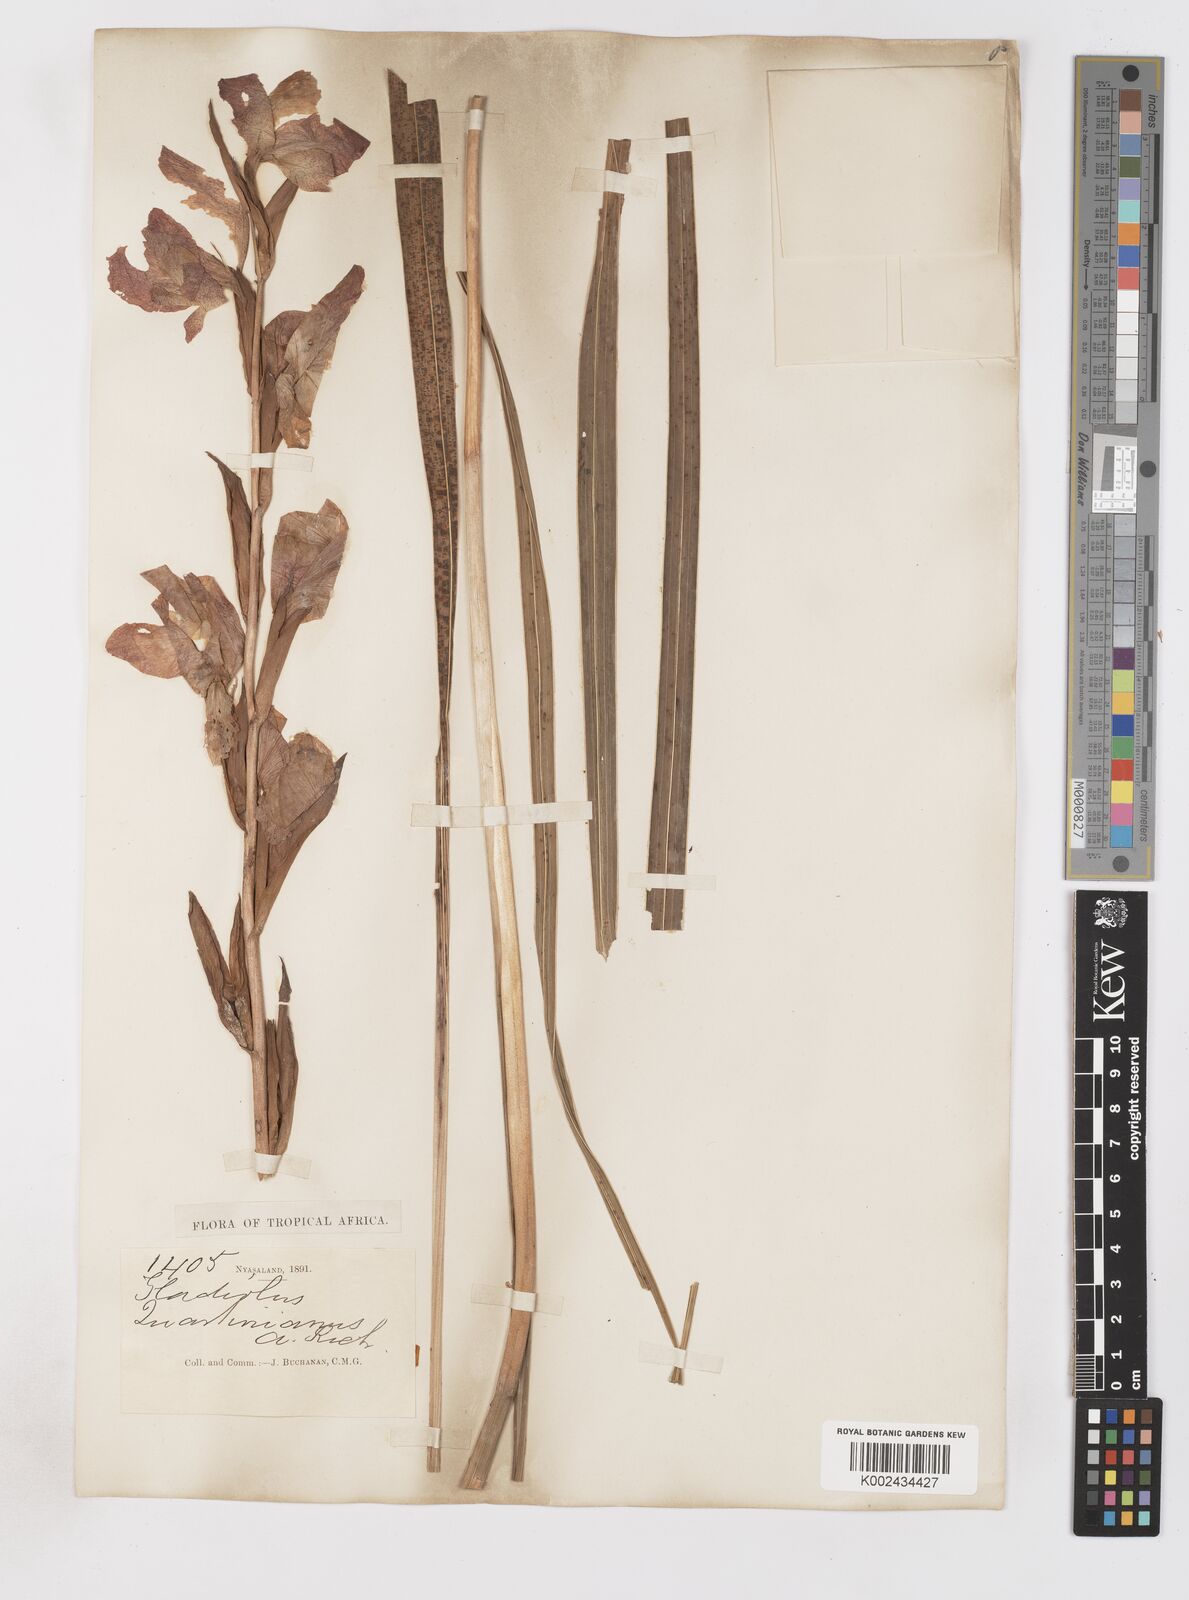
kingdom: Plantae
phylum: Tracheophyta
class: Liliopsida
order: Asparagales
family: Iridaceae
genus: Gladiolus
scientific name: Gladiolus dalenii
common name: Cornflag
